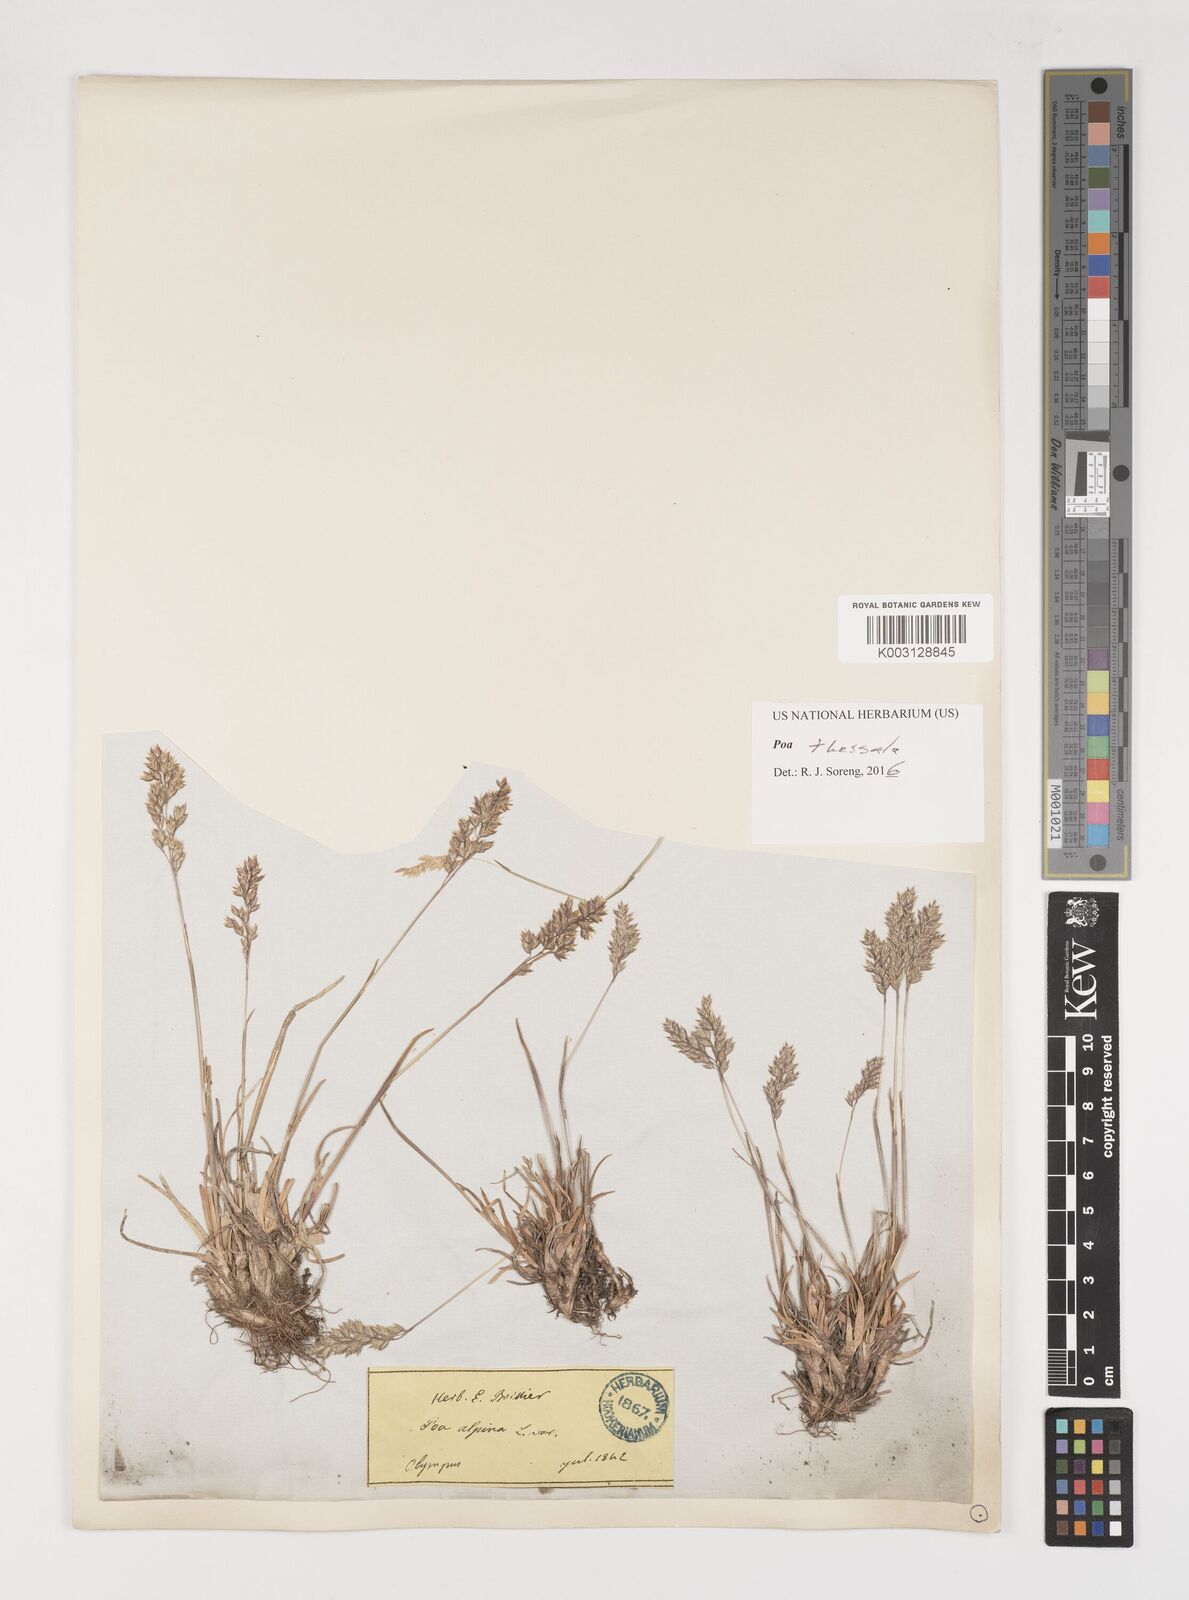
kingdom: Plantae
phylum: Tracheophyta
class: Liliopsida
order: Poales
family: Poaceae
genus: Poa
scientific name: Poa thessala
